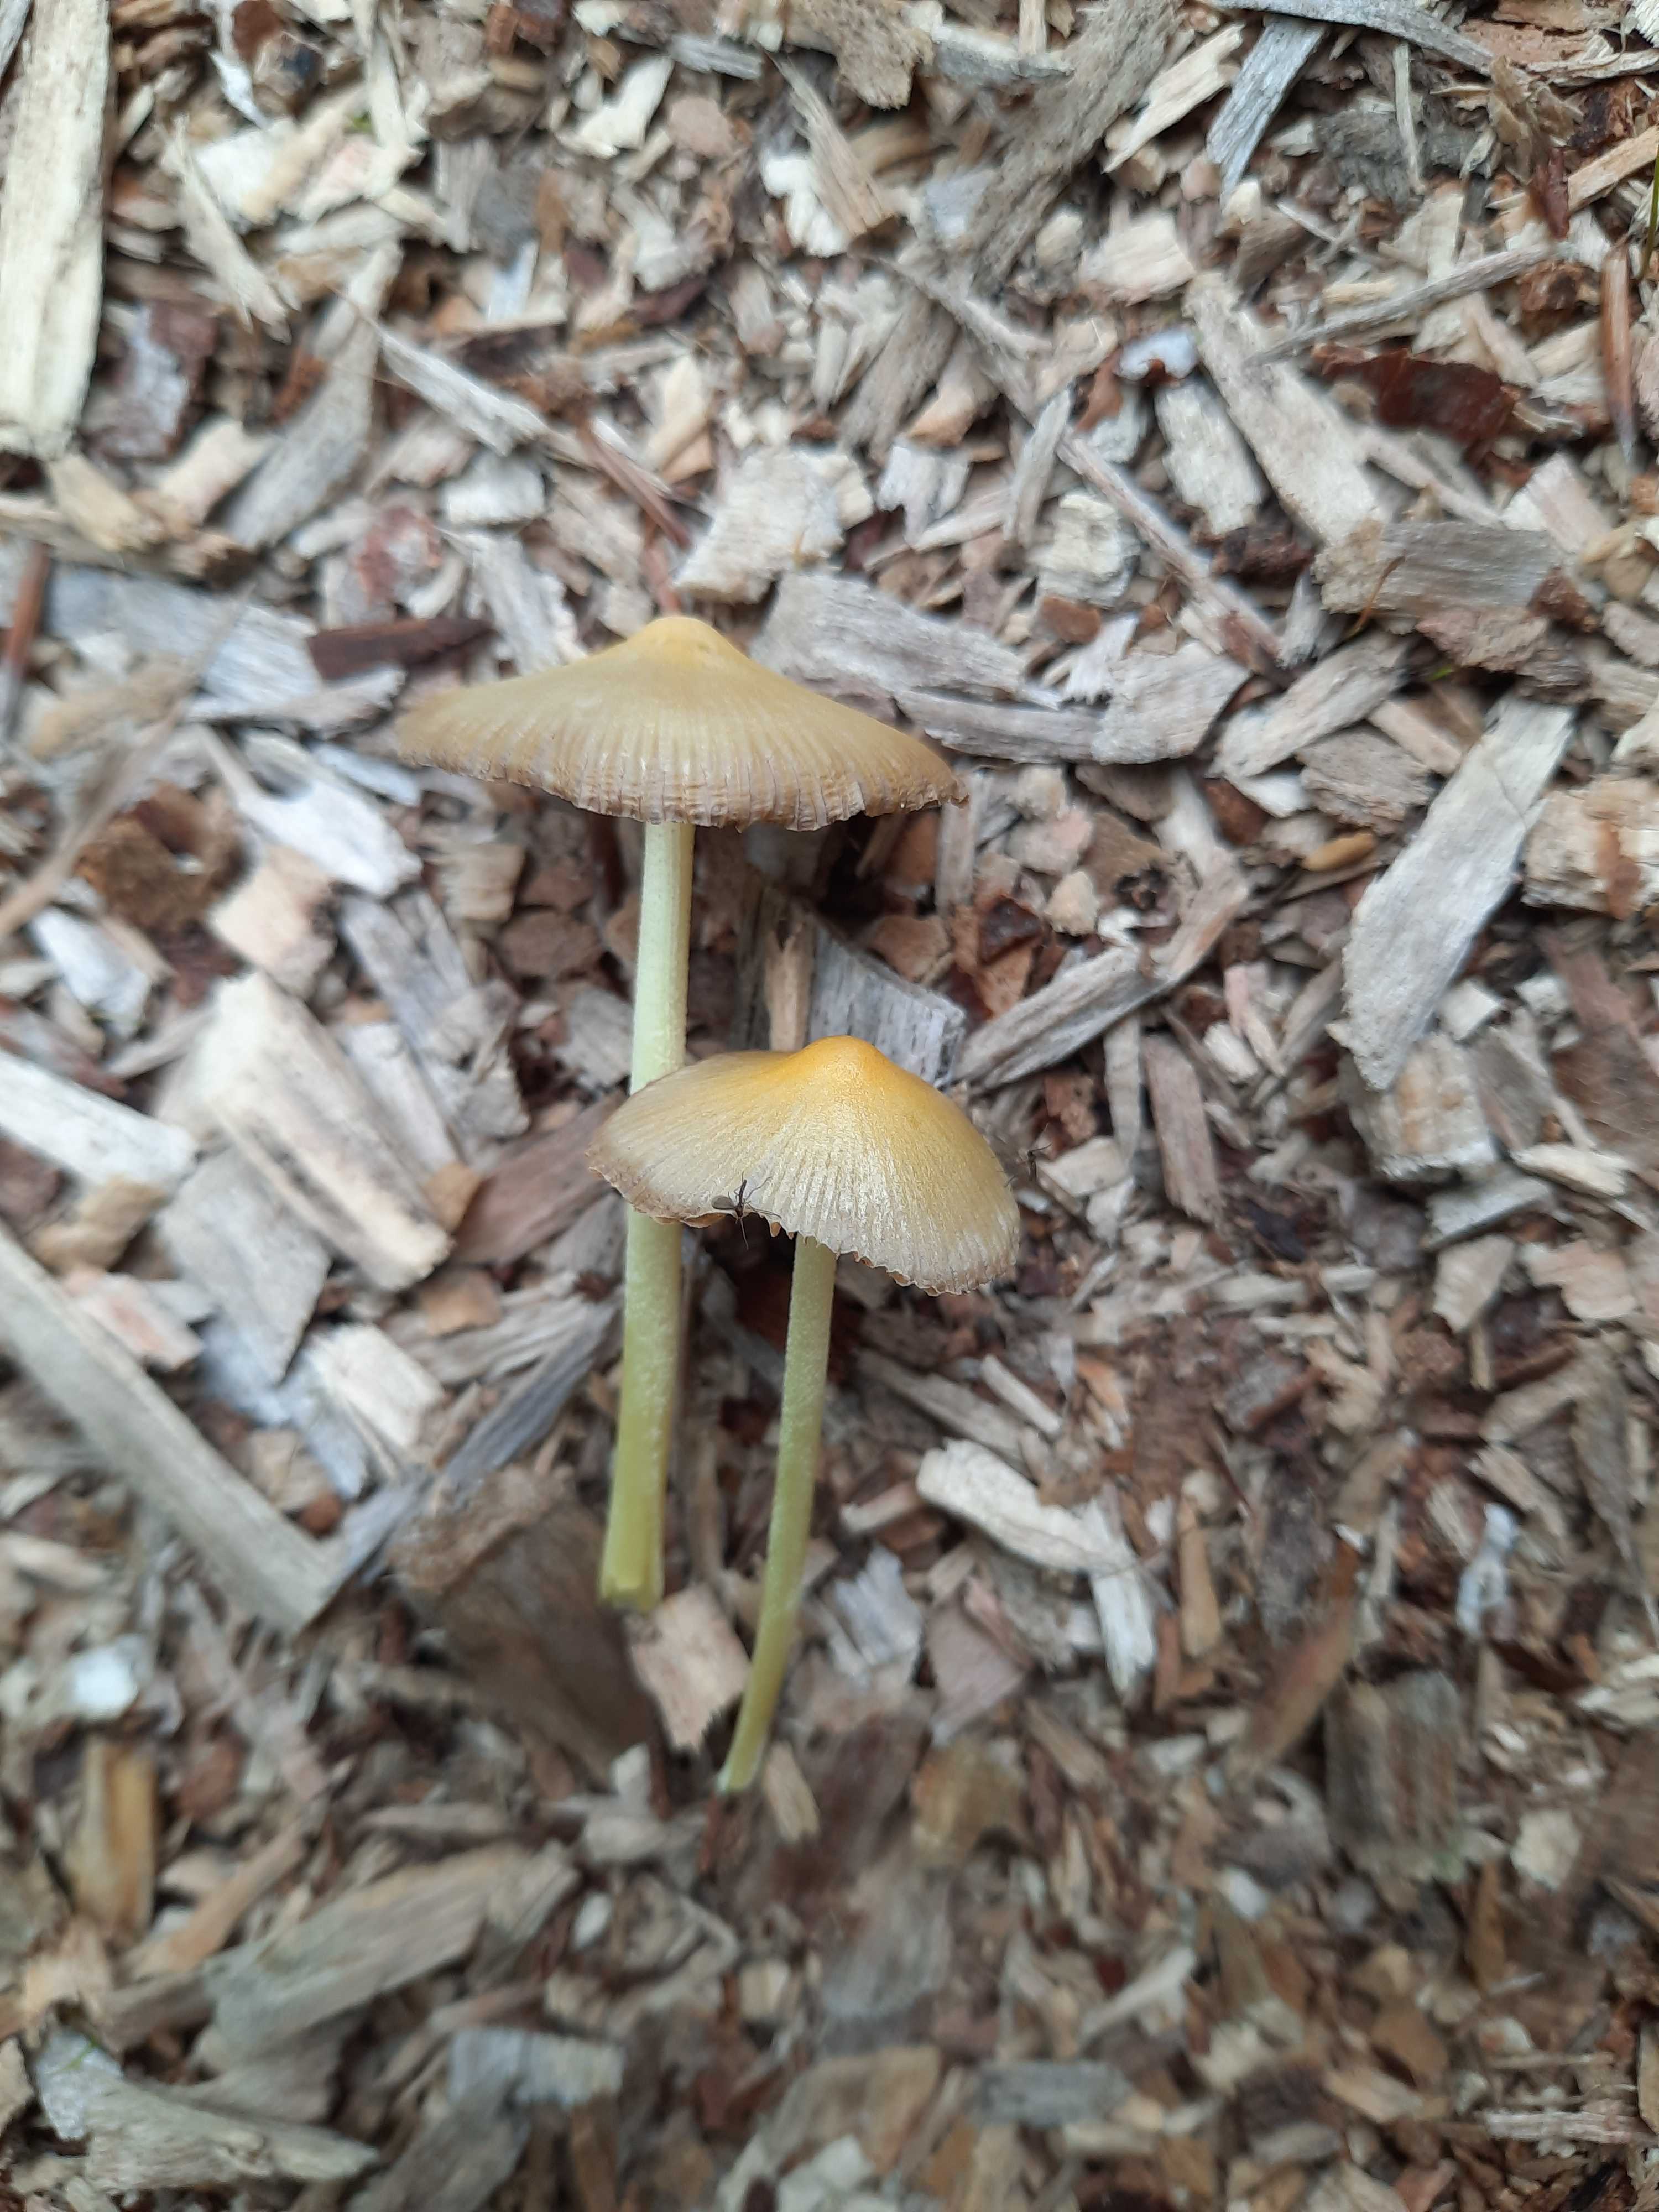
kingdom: Fungi
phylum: Basidiomycota
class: Agaricomycetes
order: Agaricales
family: Bolbitiaceae
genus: Bolbitius
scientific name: Bolbitius titubans
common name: almindelig gulhat
